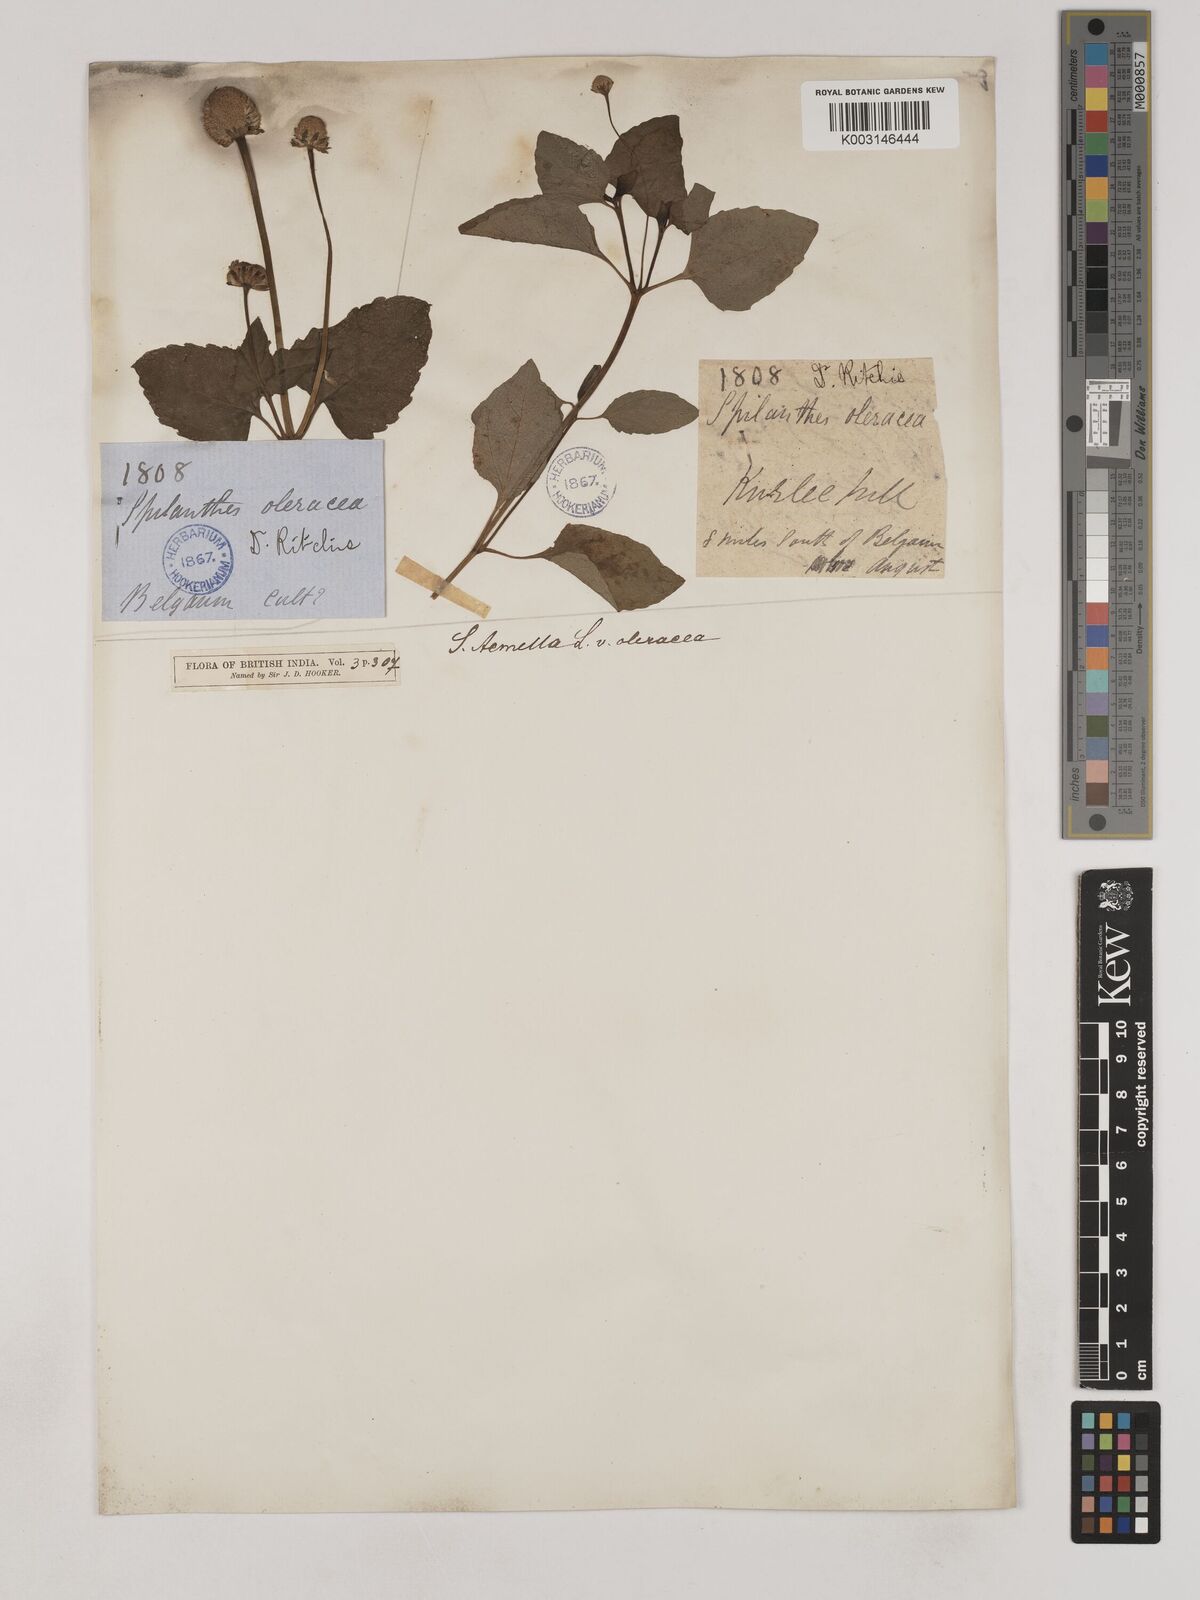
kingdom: Plantae
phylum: Tracheophyta
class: Magnoliopsida
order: Asterales
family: Asteraceae
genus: Acmella
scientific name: Acmella oleracea
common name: Brazilian cress
